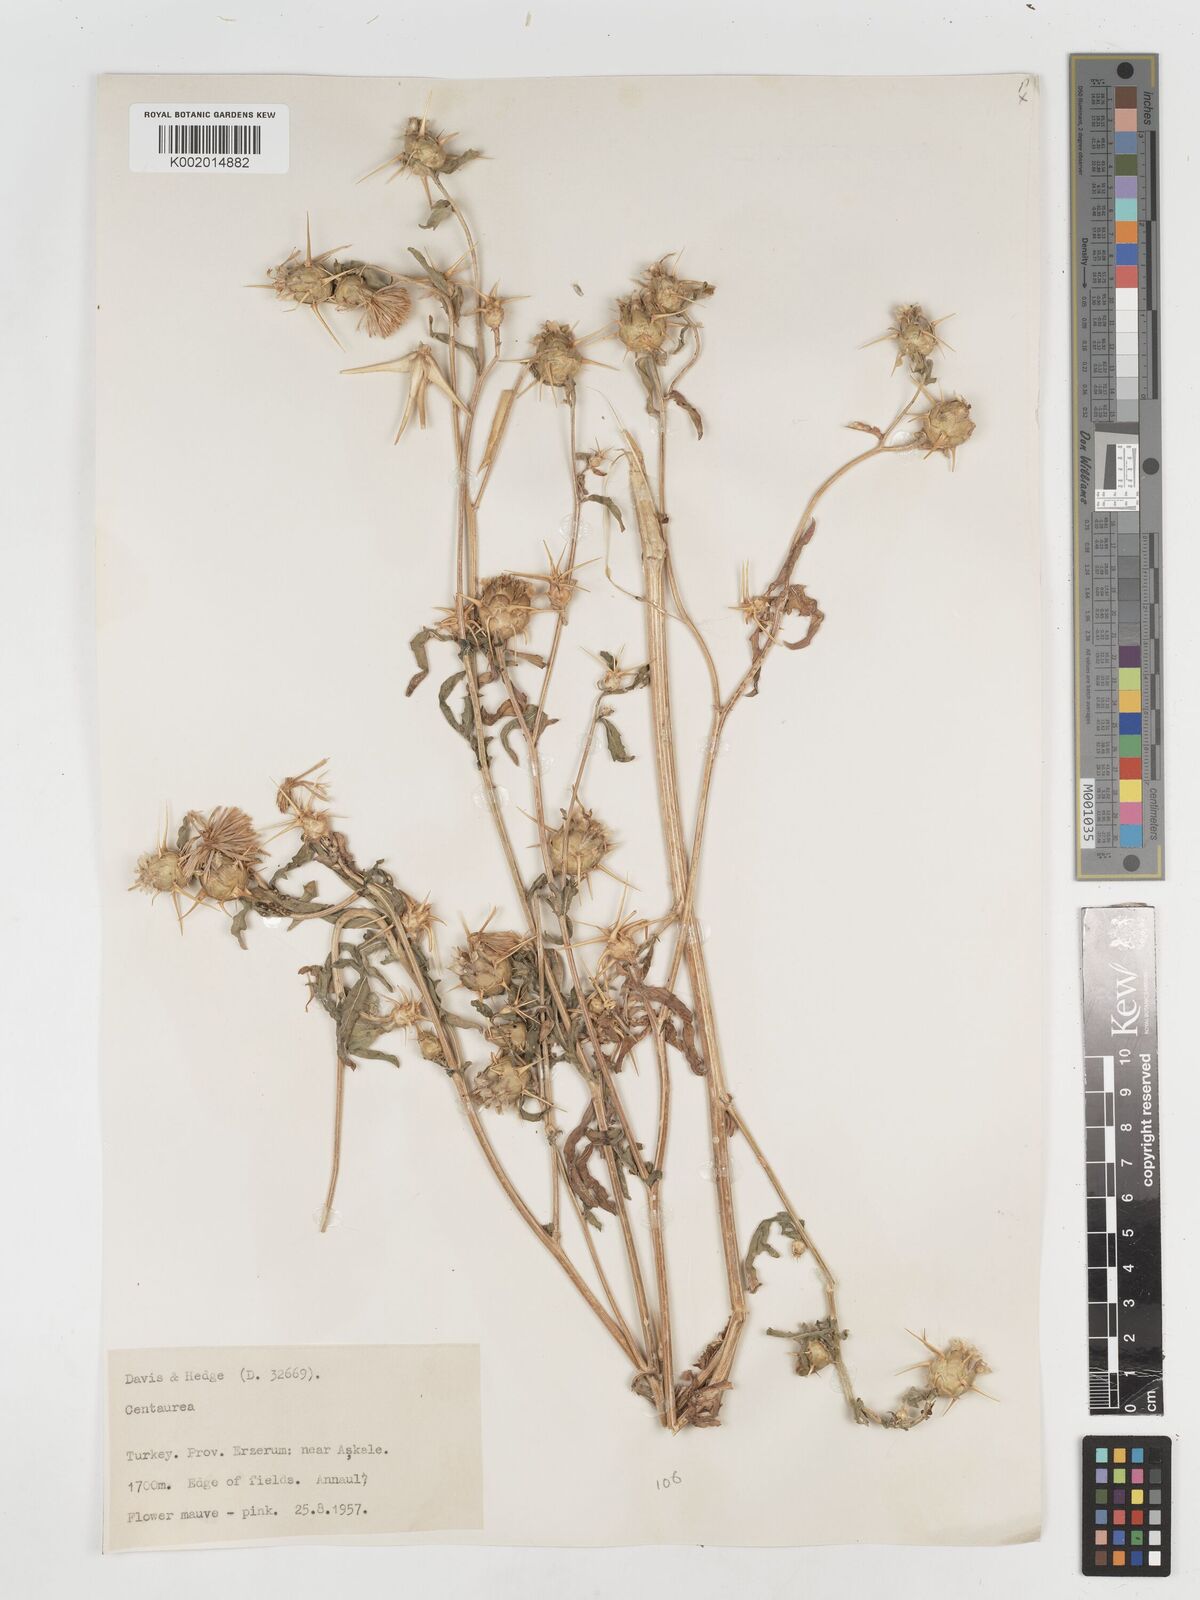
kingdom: Plantae
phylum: Tracheophyta
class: Magnoliopsida
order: Asterales
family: Asteraceae
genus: Centaurea
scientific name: Centaurea iberica
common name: Iberian knapweed
